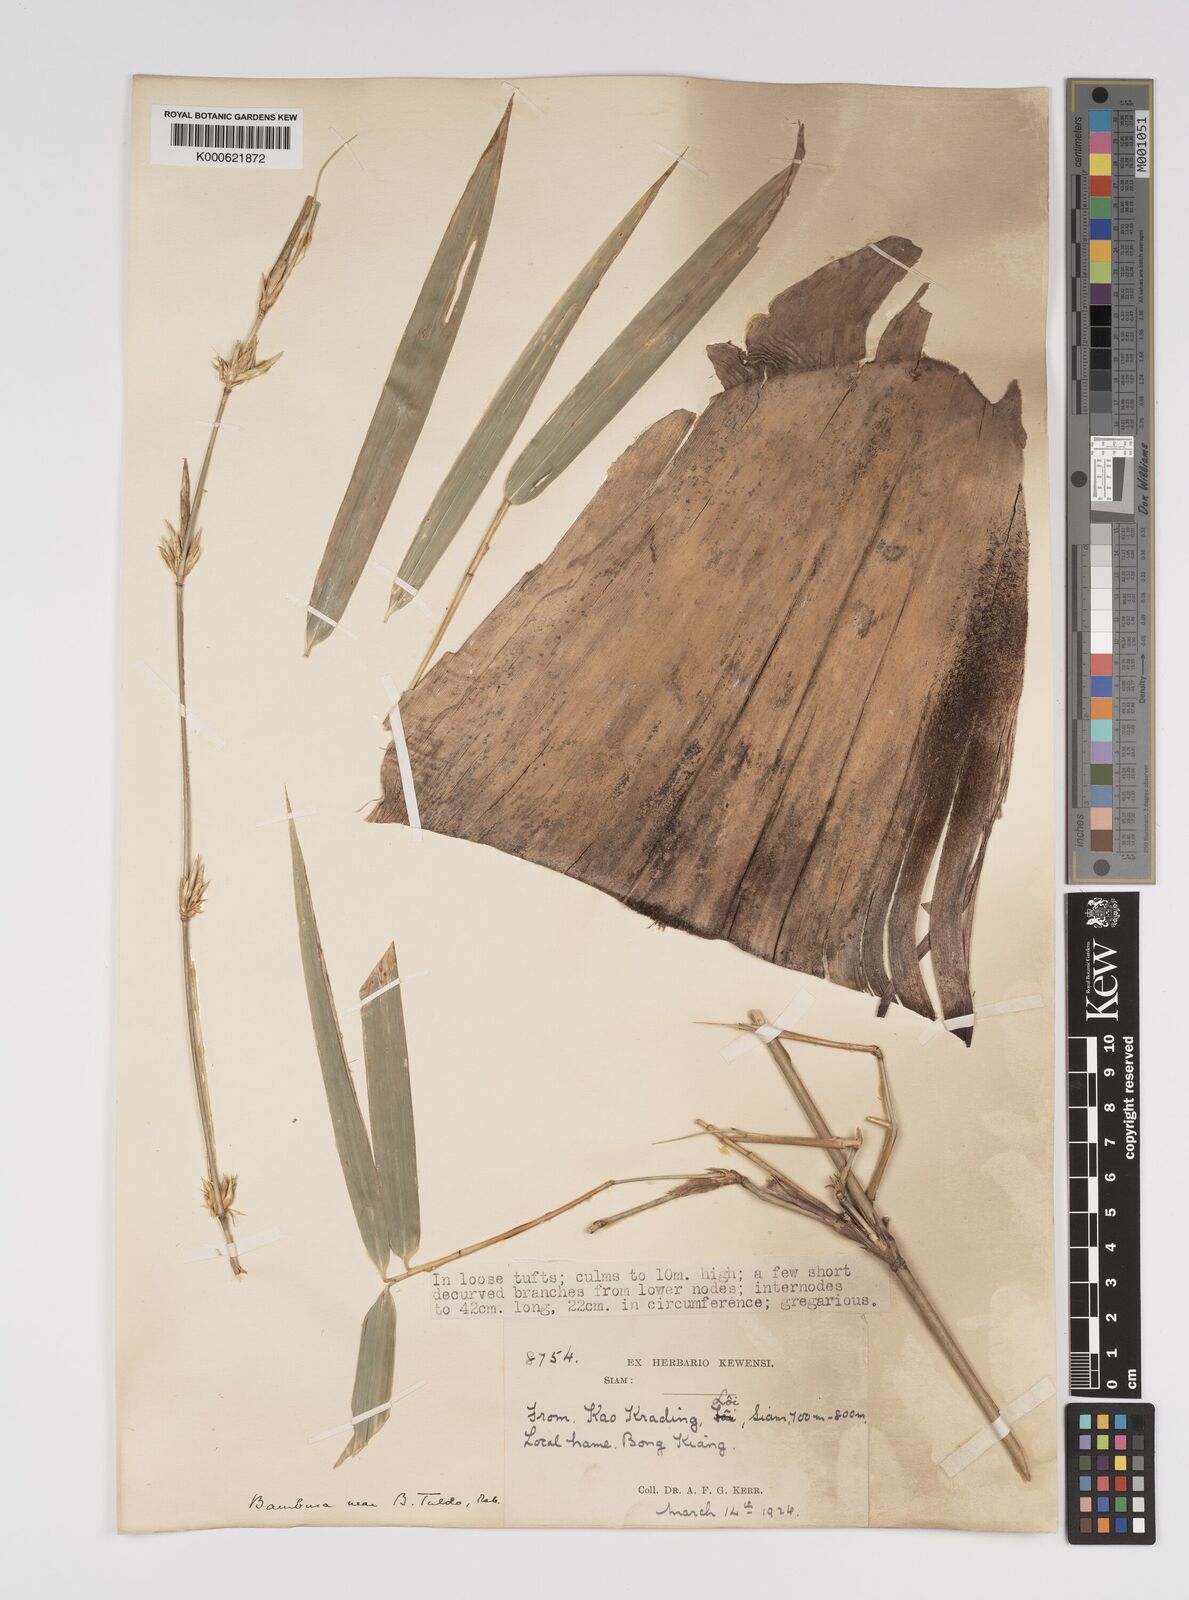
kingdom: Plantae
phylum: Tracheophyta
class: Liliopsida
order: Poales
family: Poaceae
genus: Bambusa
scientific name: Bambusa tulda
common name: Bengal bamboo
